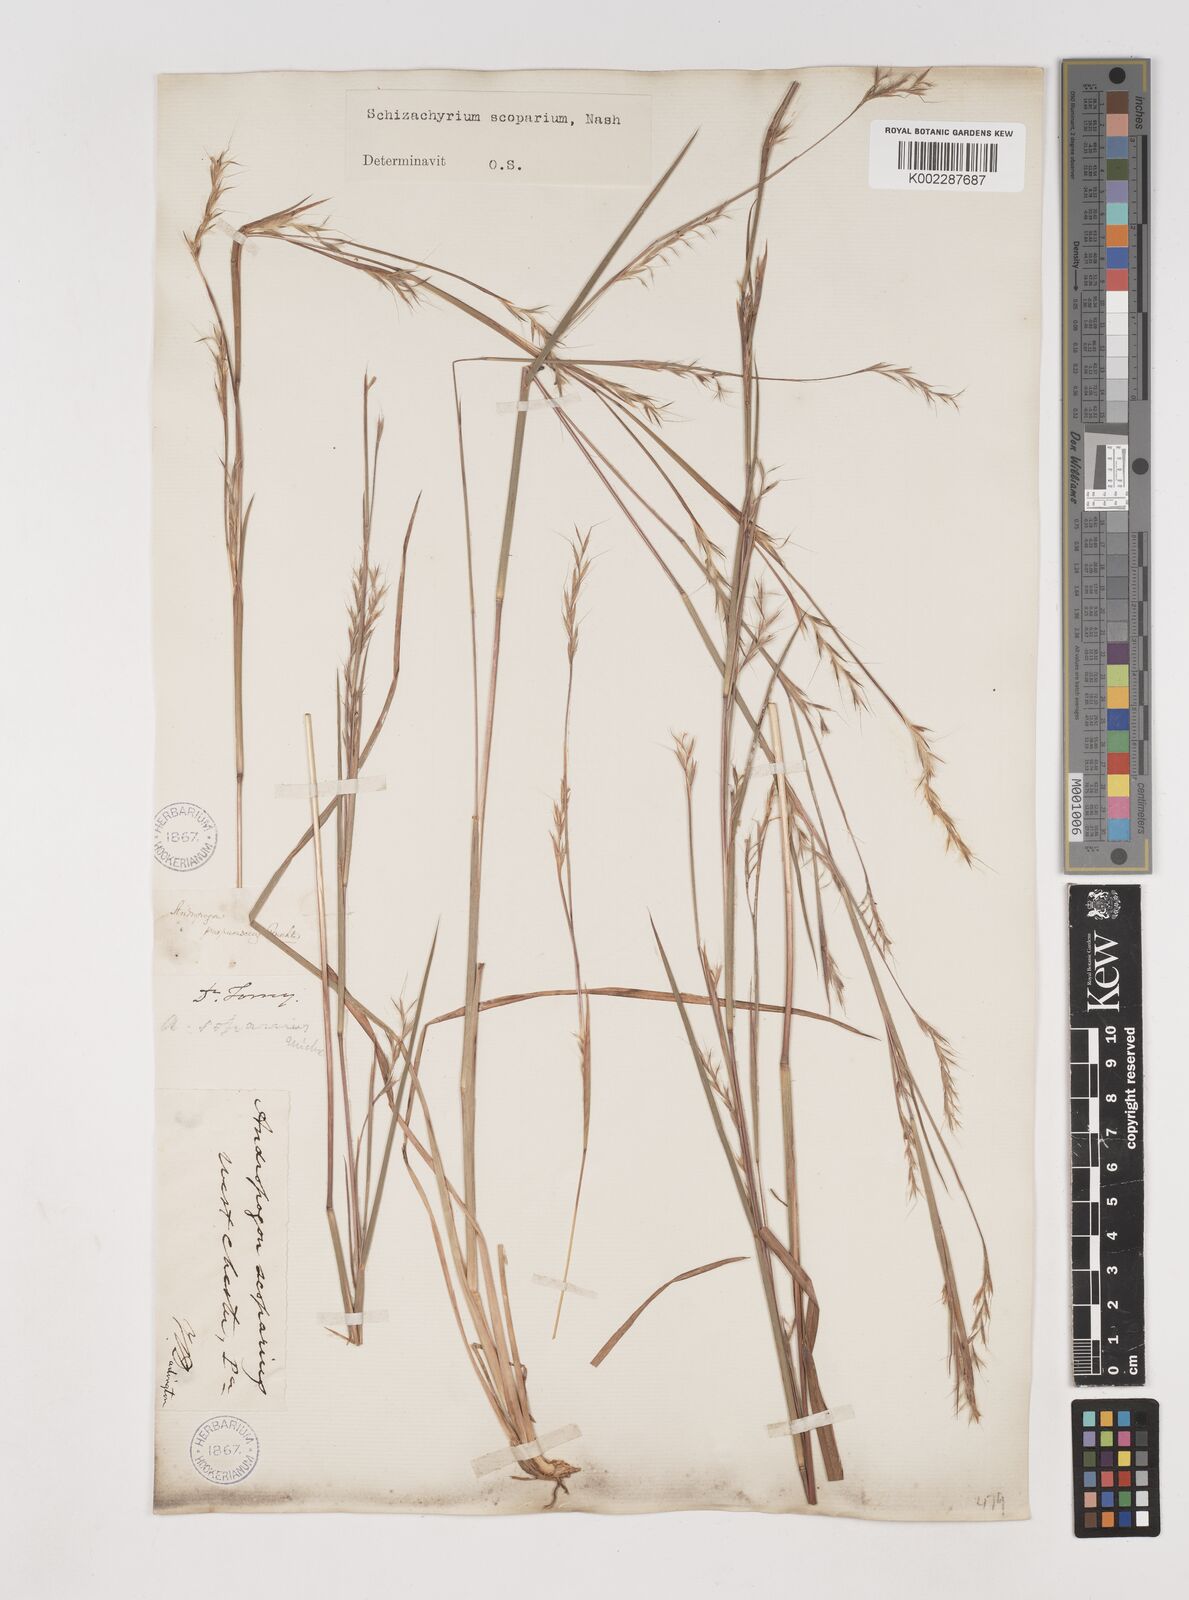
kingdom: Plantae
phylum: Tracheophyta
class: Liliopsida
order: Poales
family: Poaceae
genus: Schizachyrium
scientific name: Schizachyrium scoparium
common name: Little bluestem
